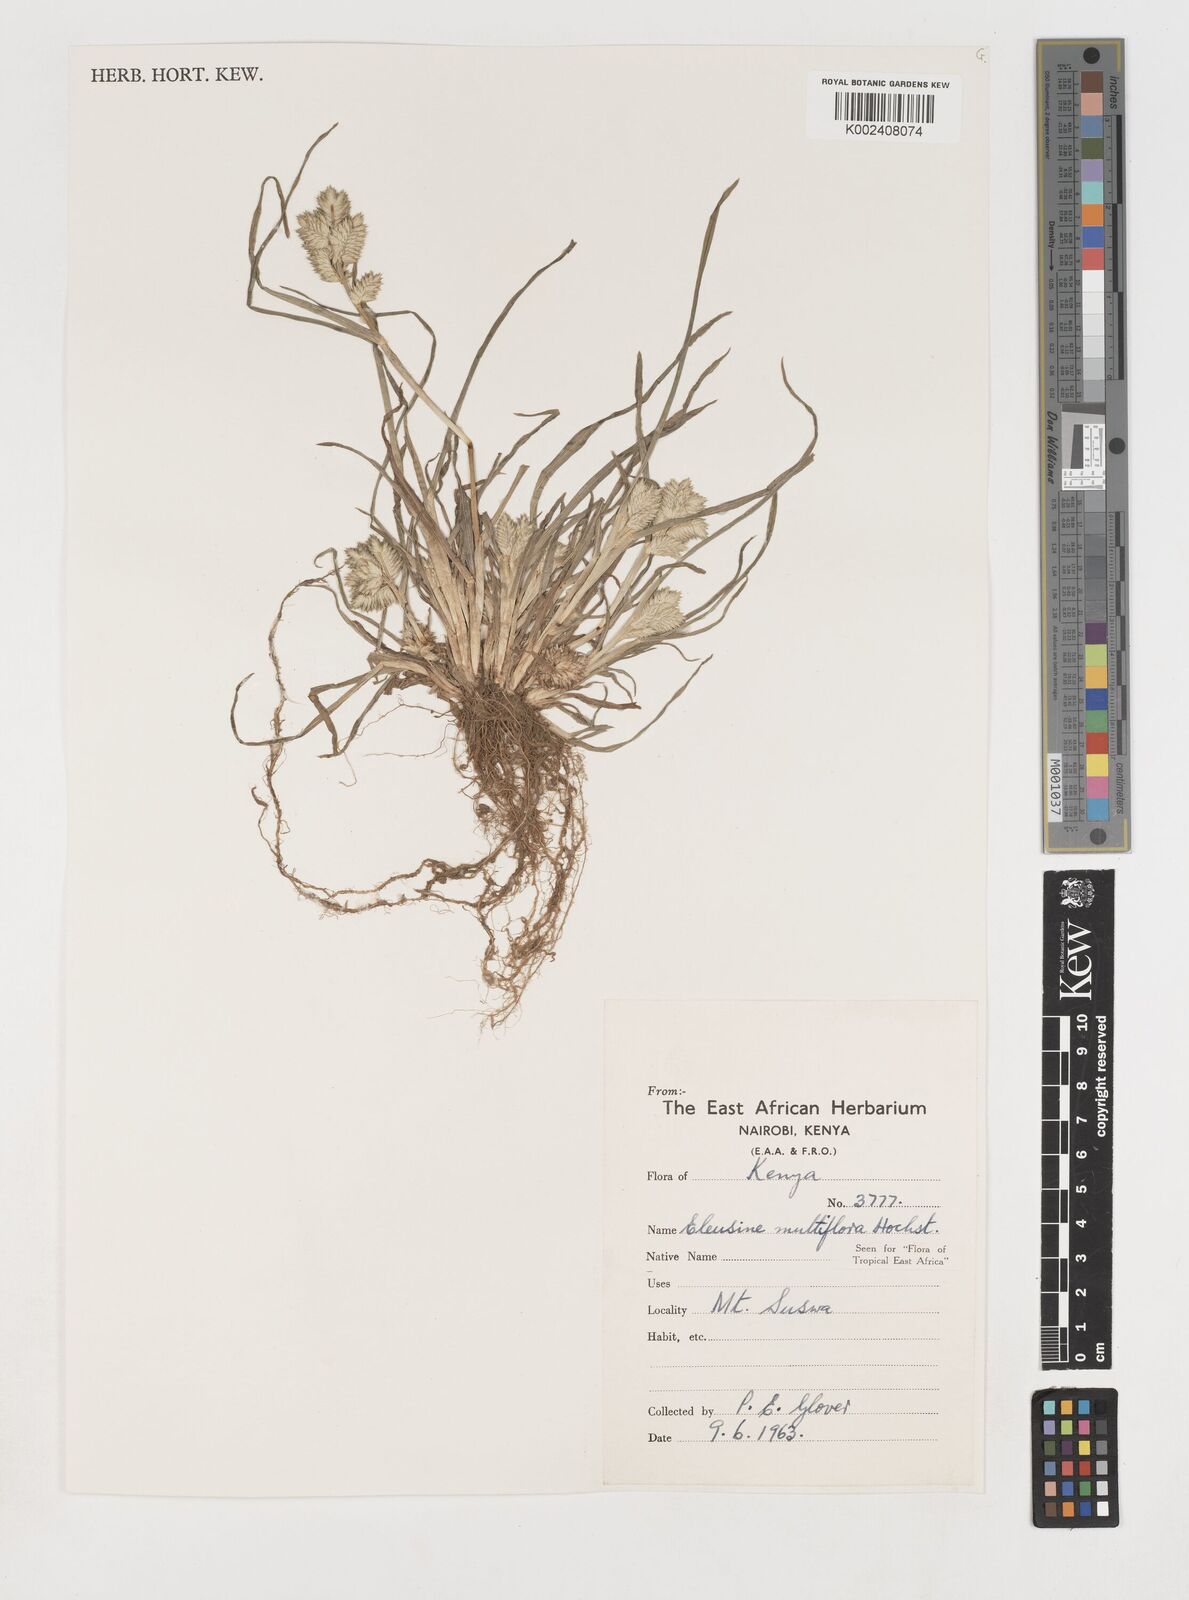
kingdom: Plantae
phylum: Tracheophyta
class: Liliopsida
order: Poales
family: Poaceae
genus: Eleusine
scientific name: Eleusine multiflora
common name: Fat-spiked yard-grass
